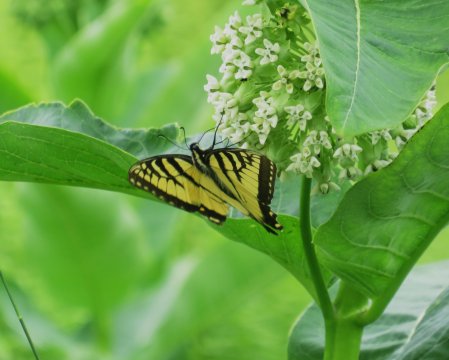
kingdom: Animalia
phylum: Arthropoda
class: Insecta
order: Lepidoptera
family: Papilionidae
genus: Pterourus
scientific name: Pterourus glaucus
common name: Eastern Tiger Swallowtail
